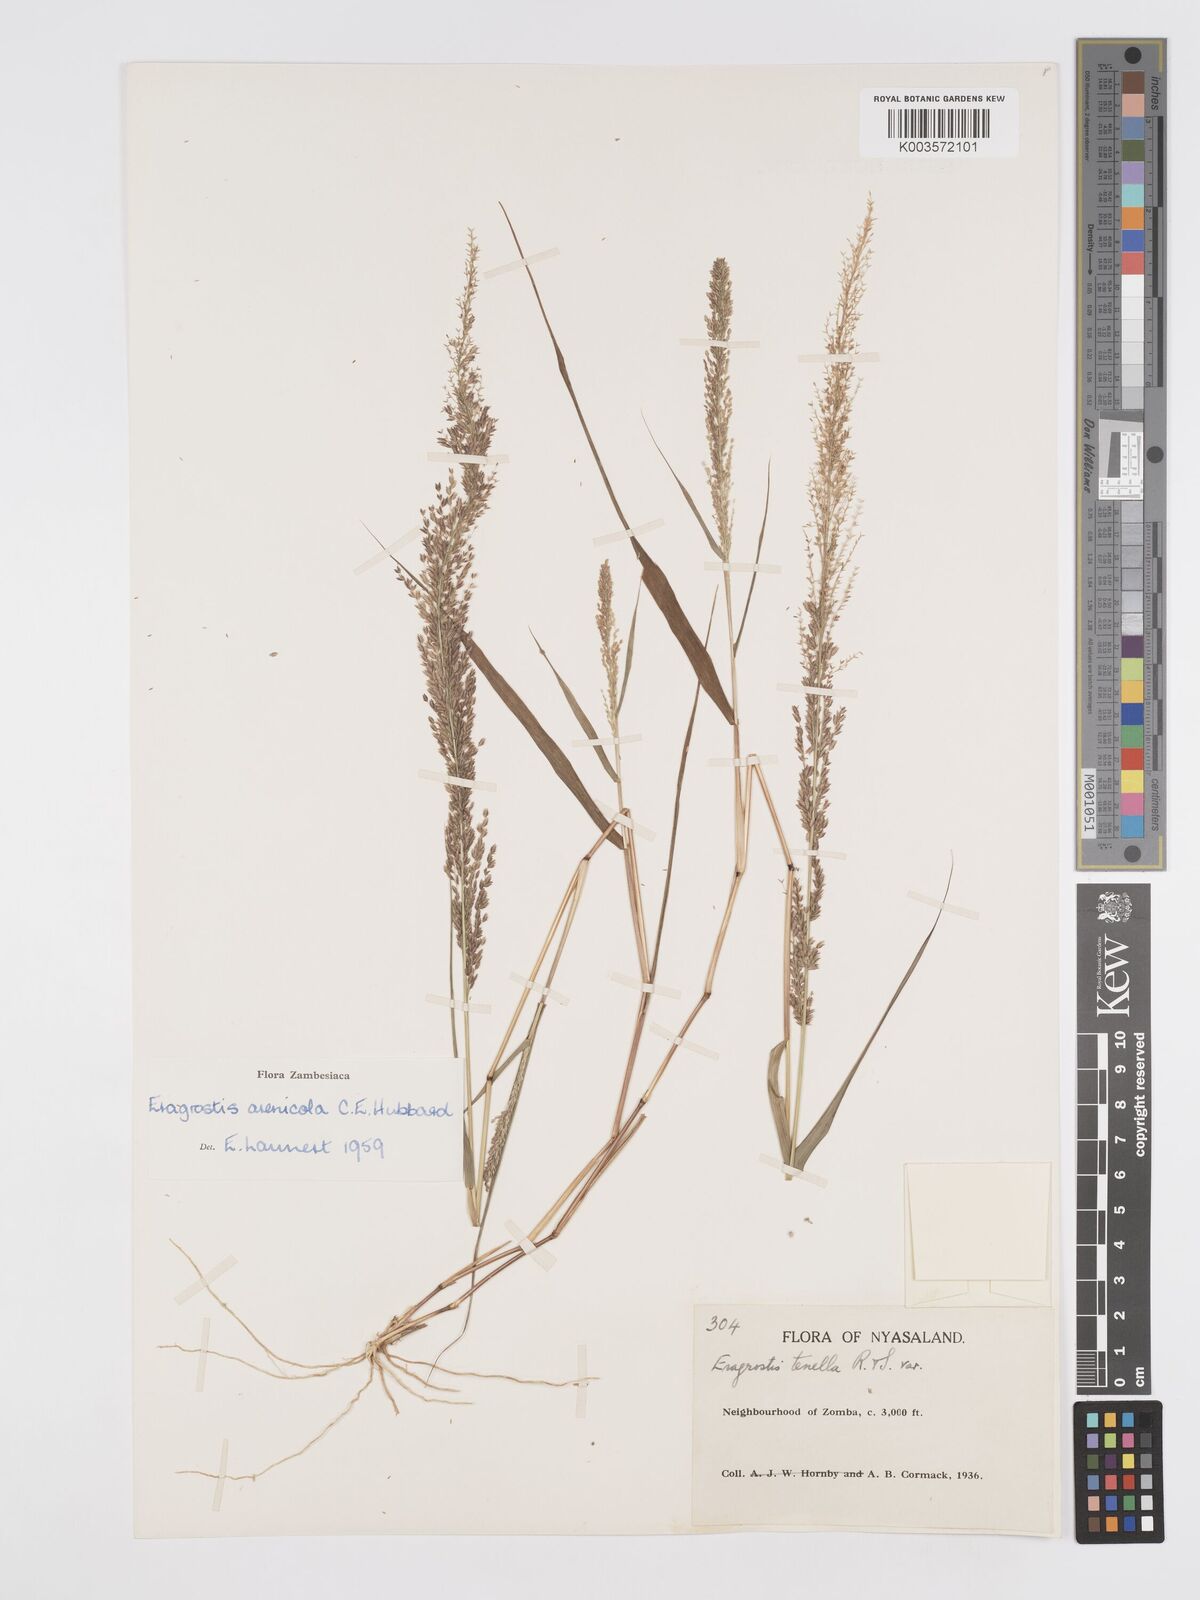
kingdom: Plantae
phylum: Tracheophyta
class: Liliopsida
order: Poales
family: Poaceae
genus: Eragrostis
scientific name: Eragrostis arenicola
